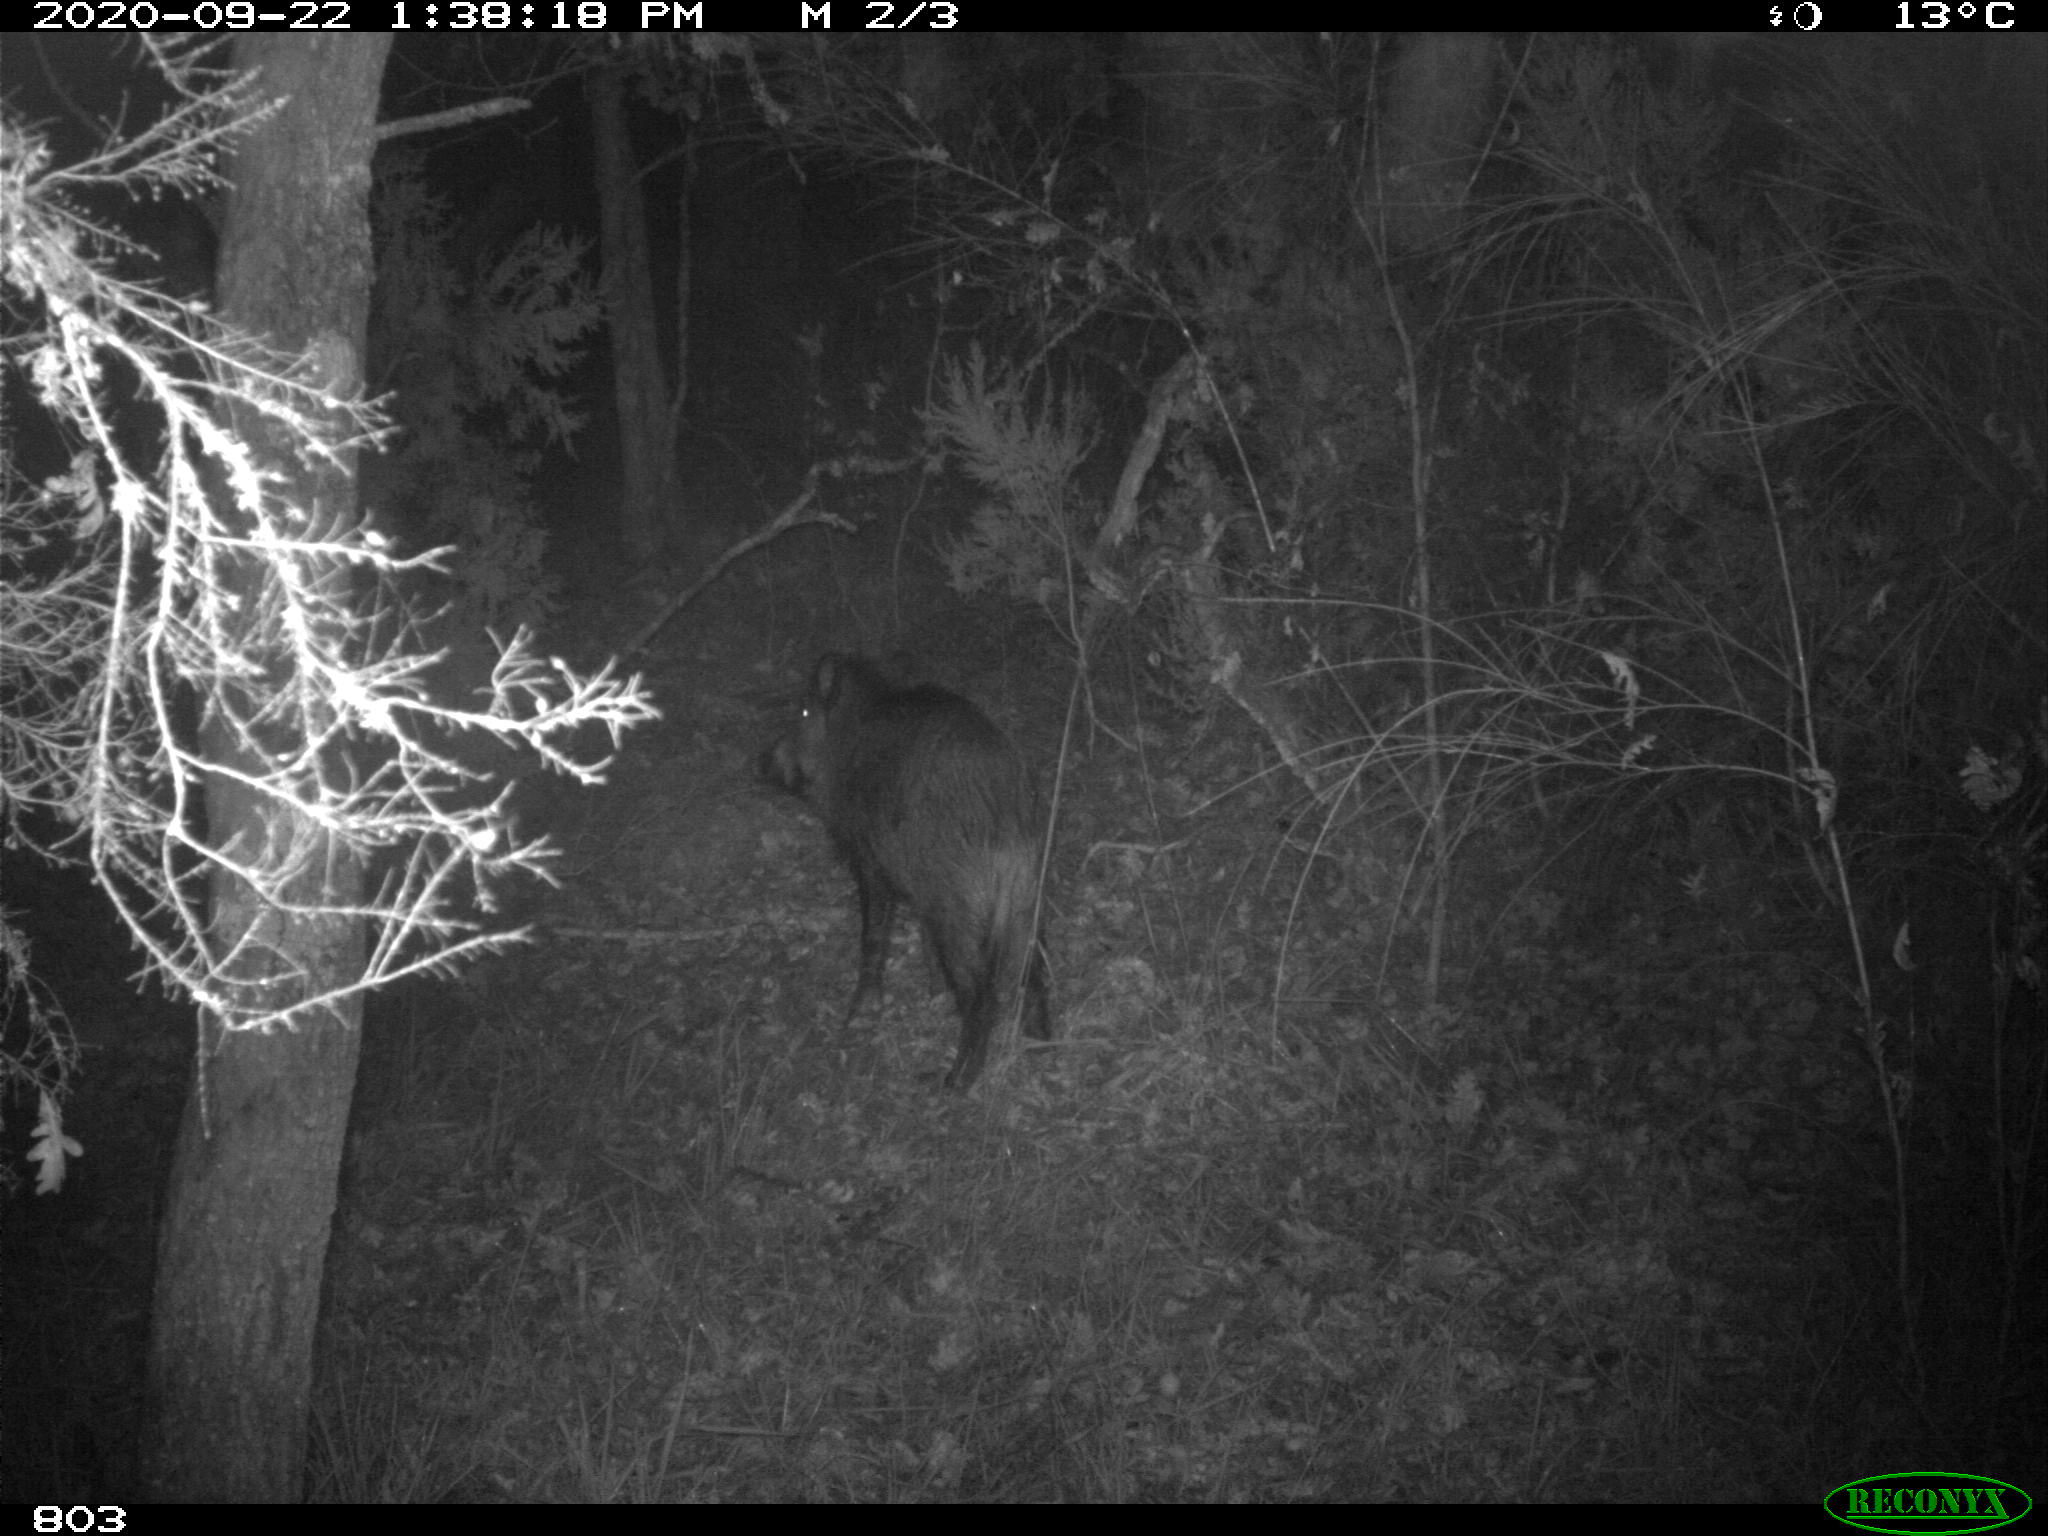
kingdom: Animalia
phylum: Chordata
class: Mammalia
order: Artiodactyla
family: Suidae
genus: Sus
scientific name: Sus scrofa
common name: Wild boar
